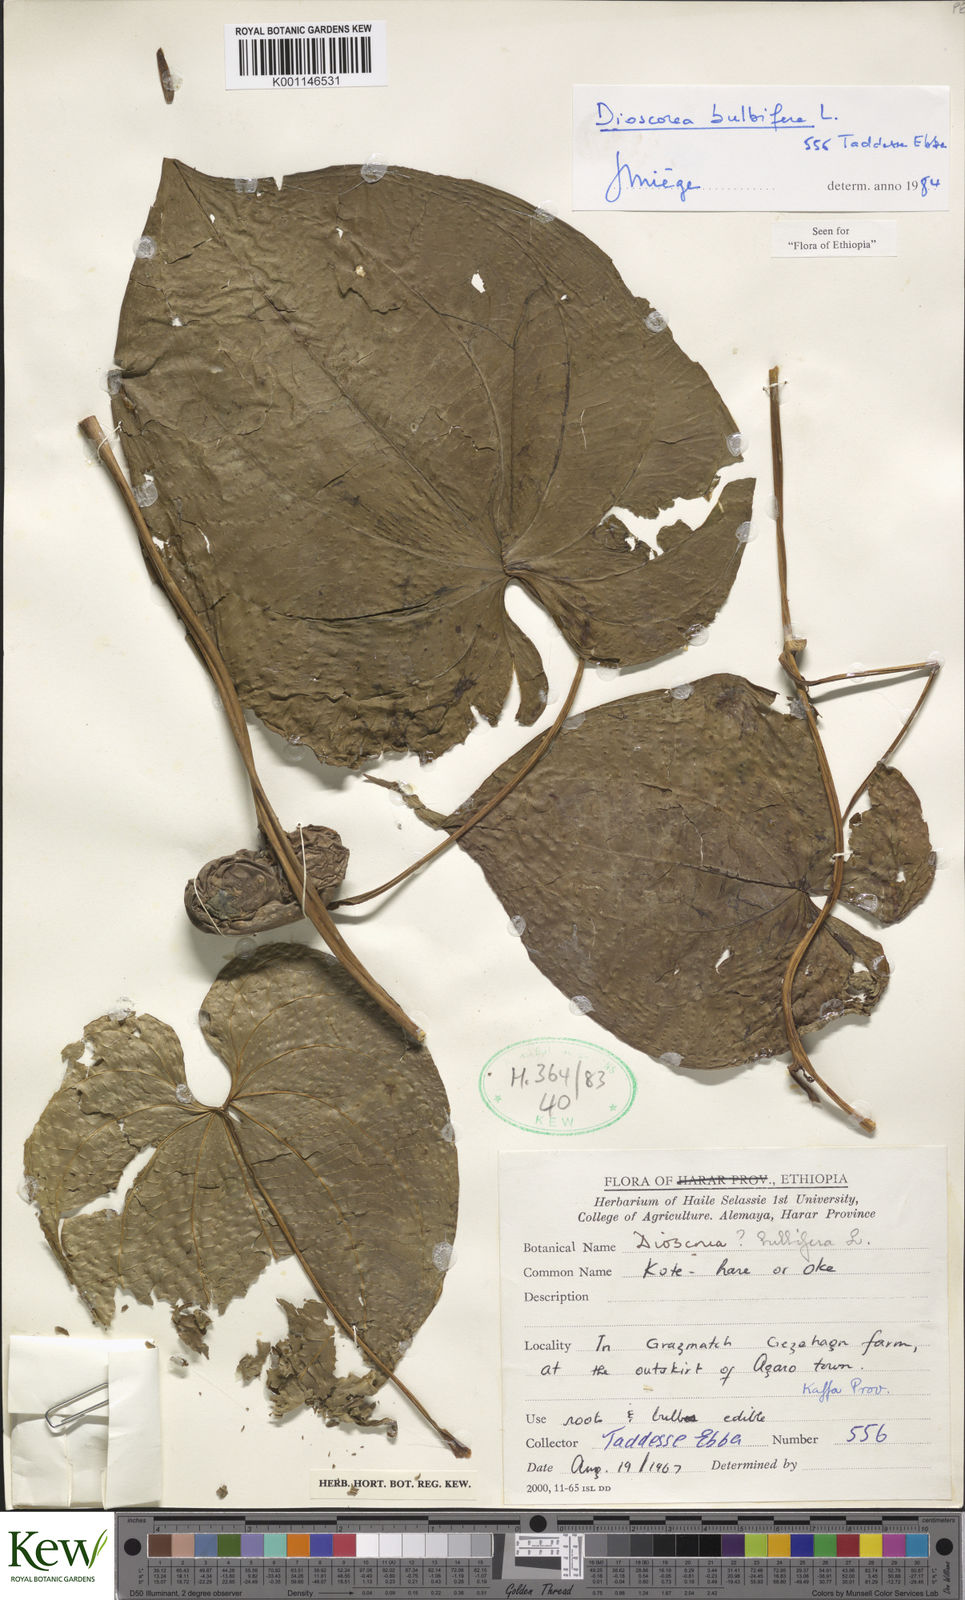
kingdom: Plantae
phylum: Tracheophyta
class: Liliopsida
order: Dioscoreales
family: Dioscoreaceae
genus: Dioscorea
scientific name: Dioscorea bulbifera
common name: Air yam
